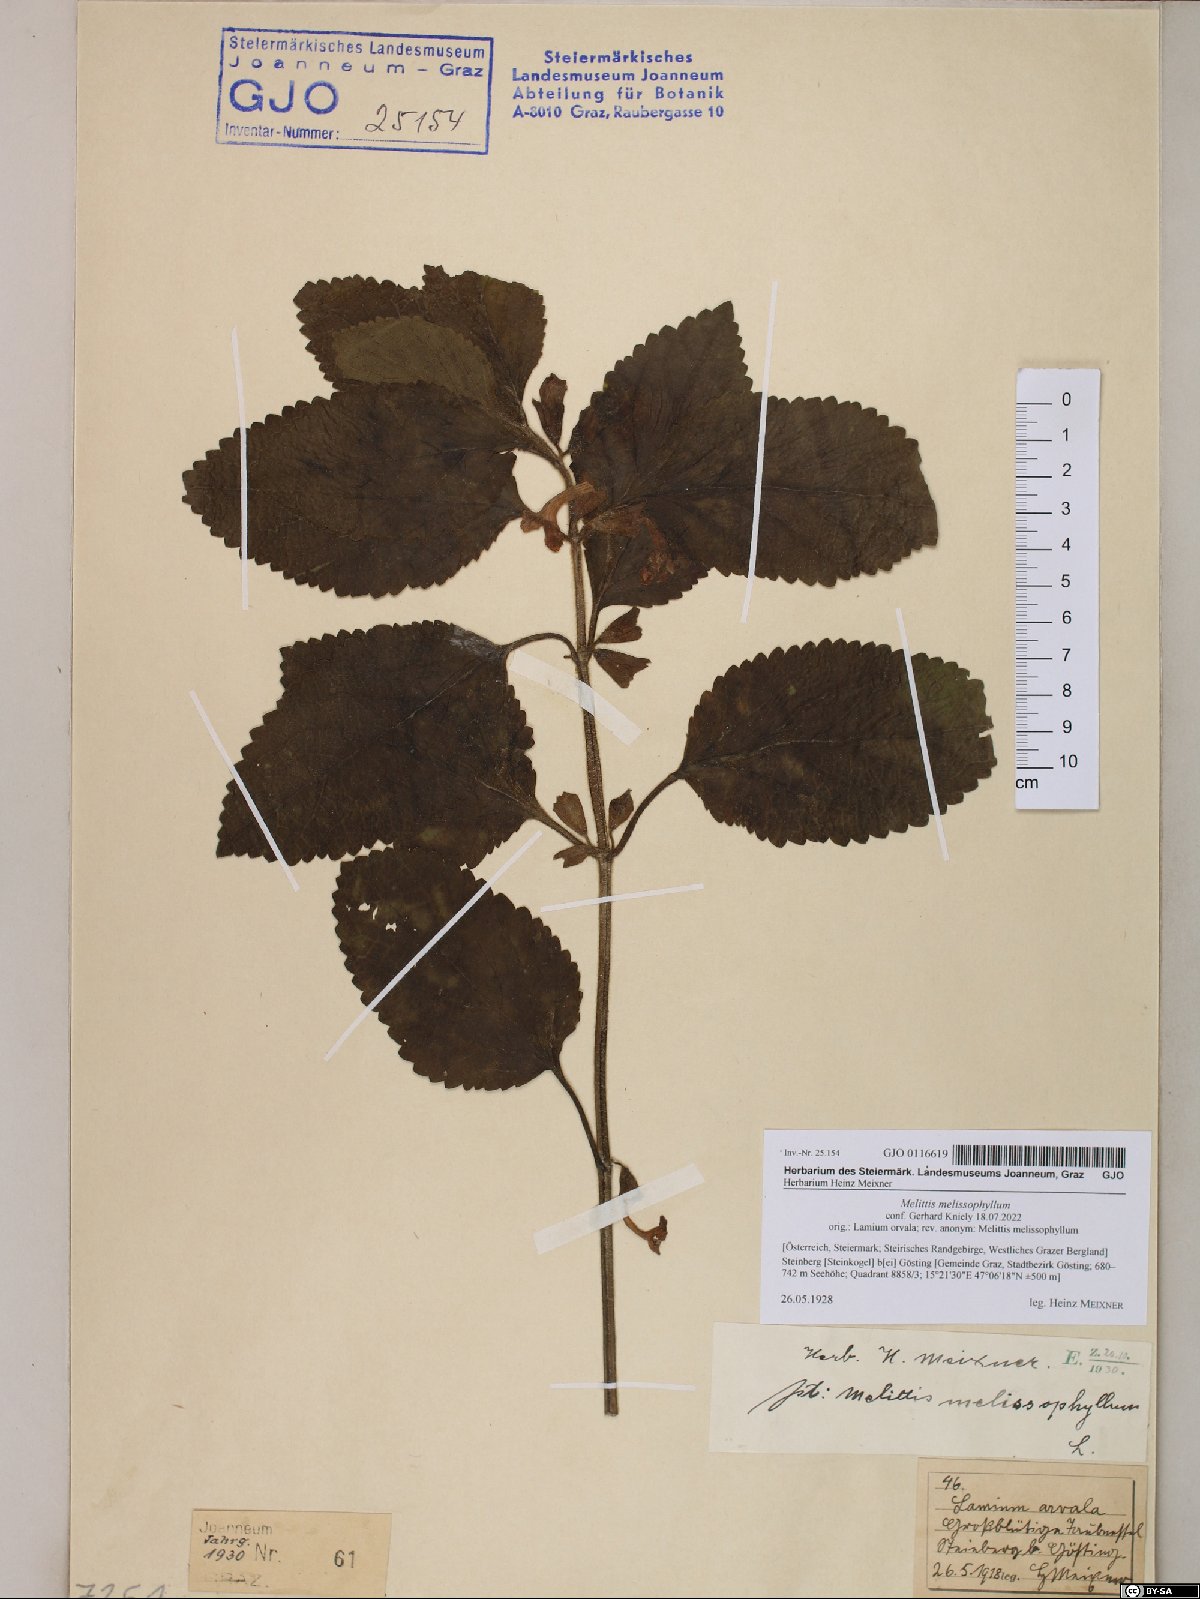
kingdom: Plantae
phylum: Tracheophyta
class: Magnoliopsida
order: Lamiales
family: Lamiaceae
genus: Melittis
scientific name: Melittis melissophyllum
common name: Bastard balm
